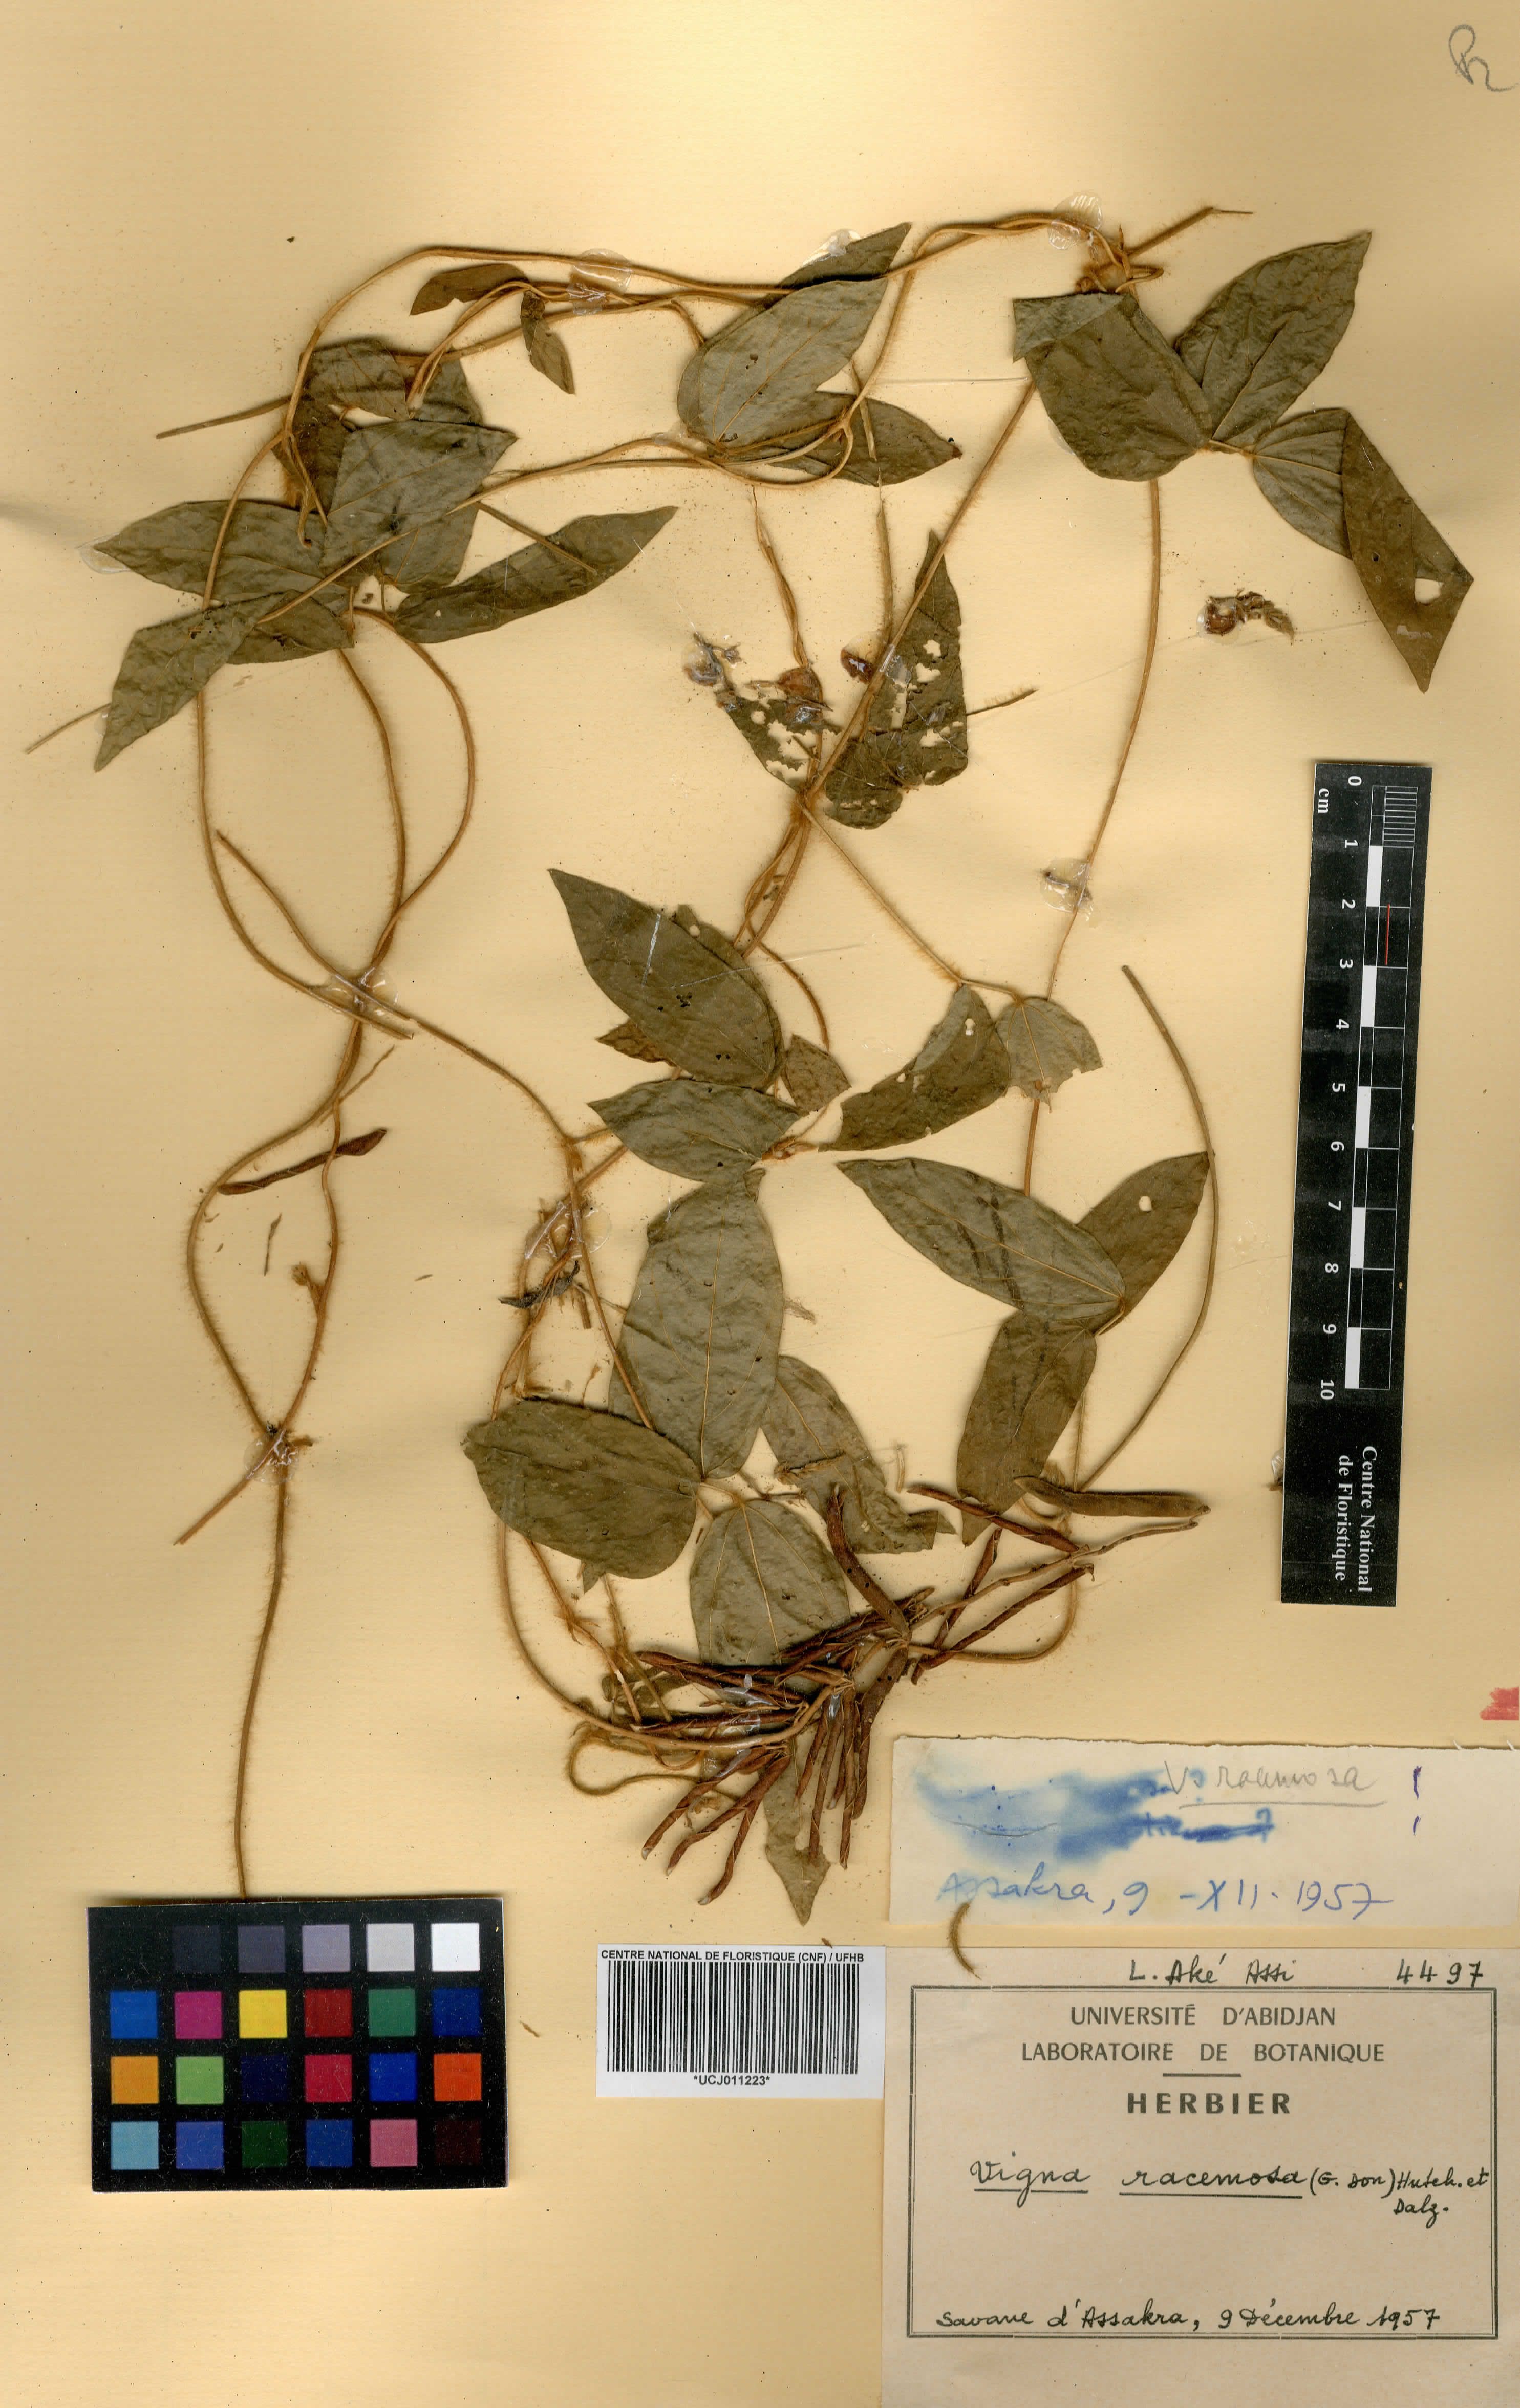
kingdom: Plantae
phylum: Tracheophyta
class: Magnoliopsida
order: Fabales
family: Fabaceae
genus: Vigna
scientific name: Vigna racemosa
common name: Beans not eaten
